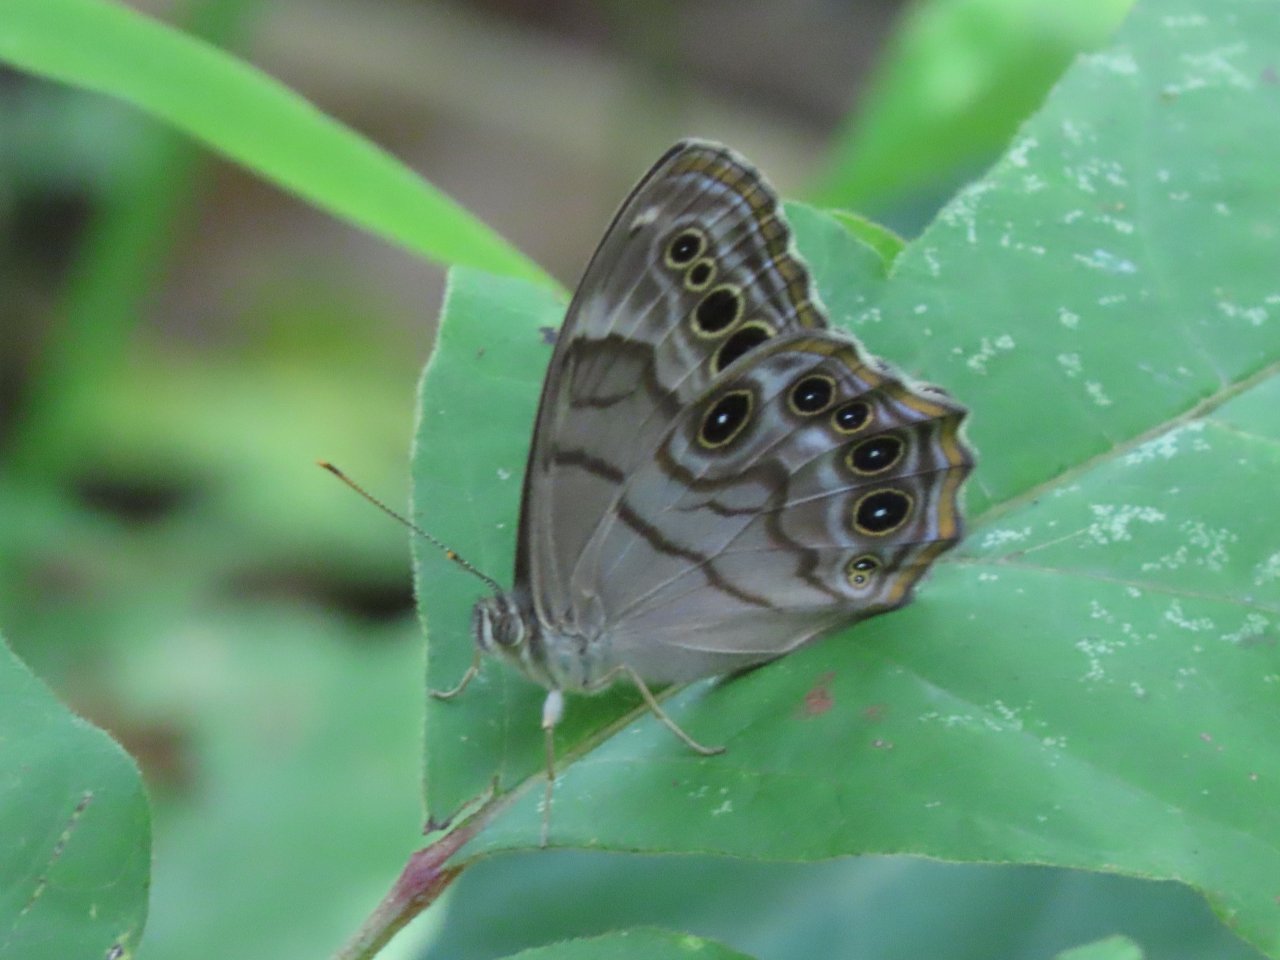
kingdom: Animalia
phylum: Arthropoda
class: Insecta
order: Lepidoptera
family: Nymphalidae
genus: Lethe
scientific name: Lethe anthedon
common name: Northern Pearly-Eye
